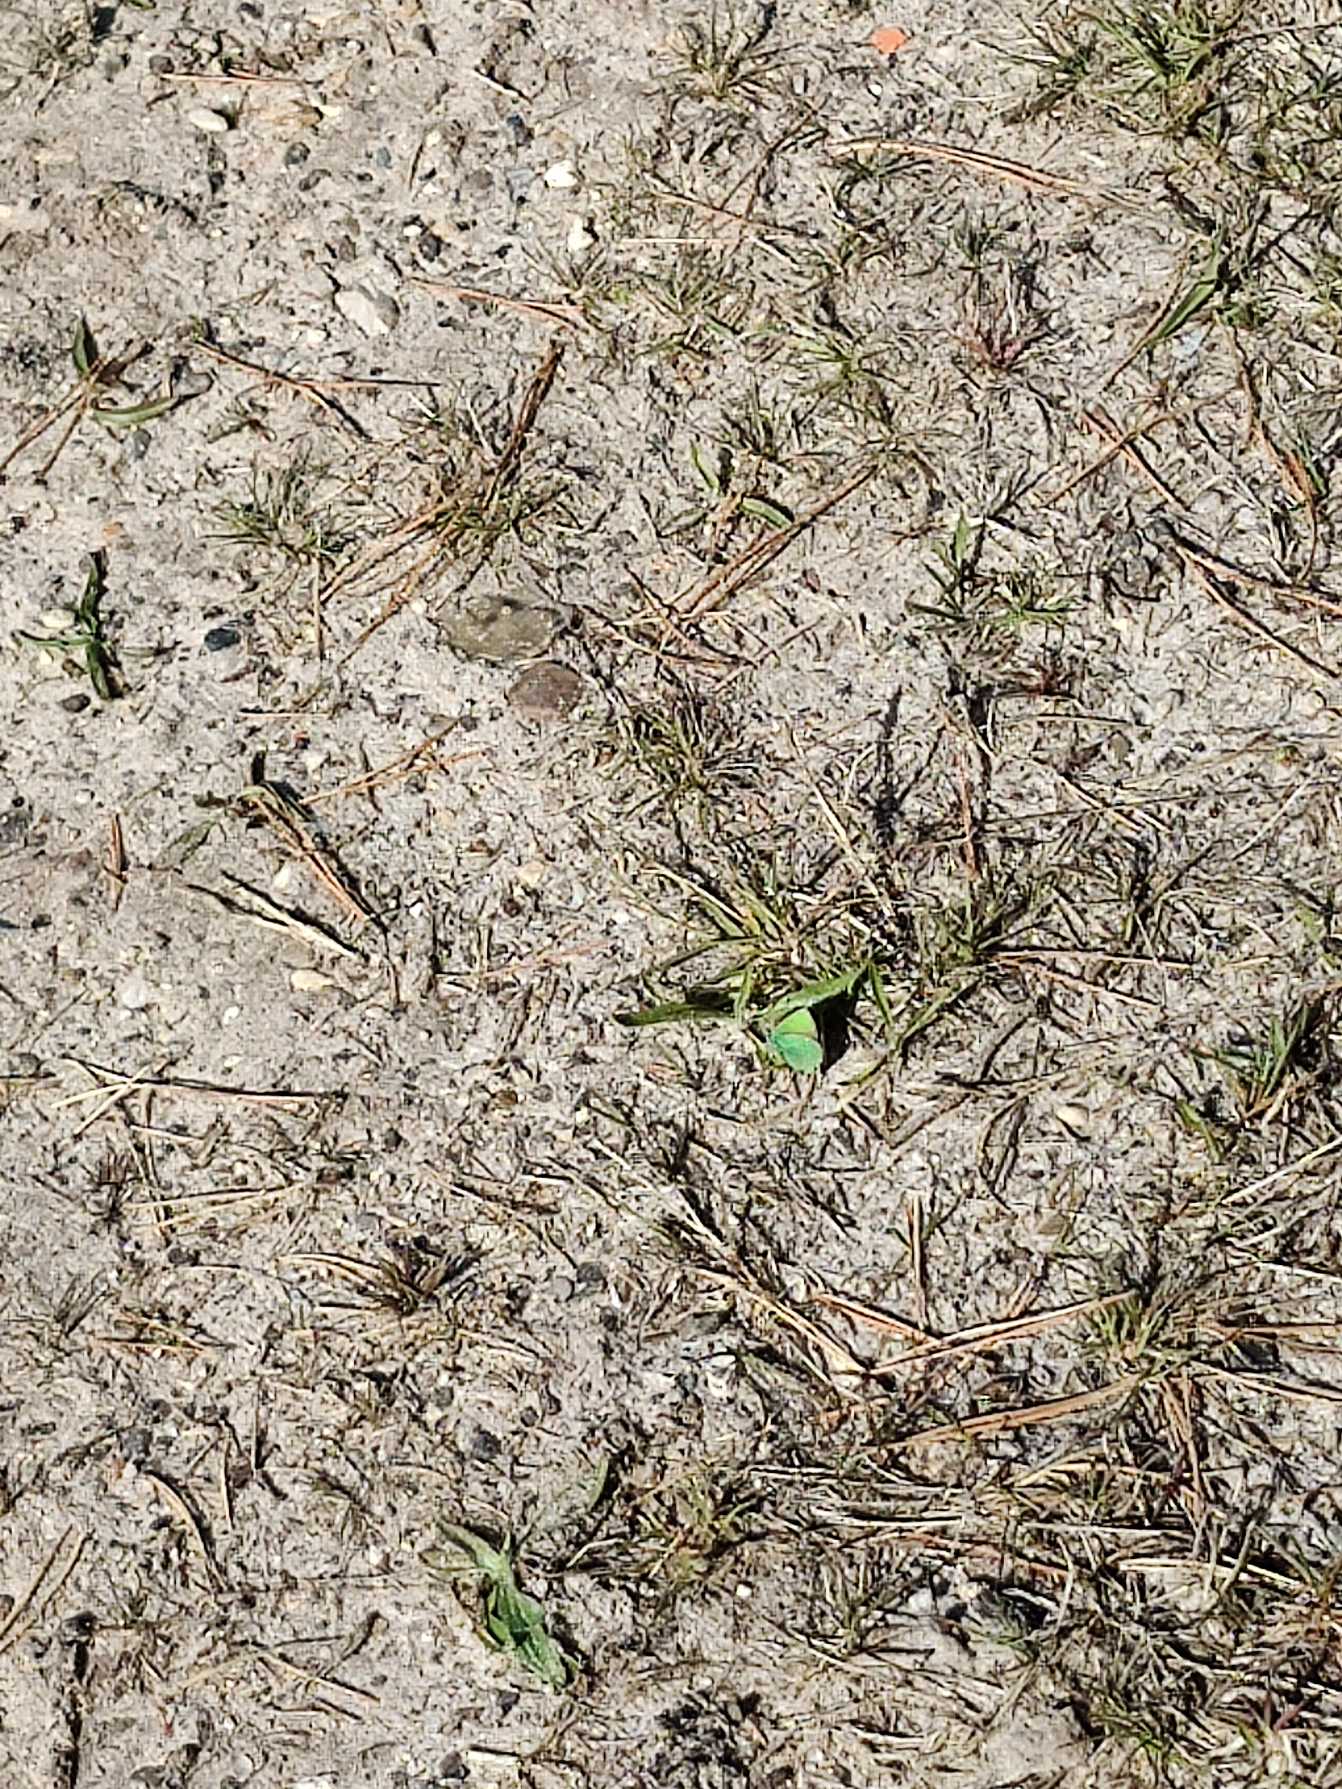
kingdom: Animalia
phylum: Arthropoda
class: Insecta
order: Lepidoptera
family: Lycaenidae
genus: Callophrys
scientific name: Callophrys rubi
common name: Grøn busksommerfugl
